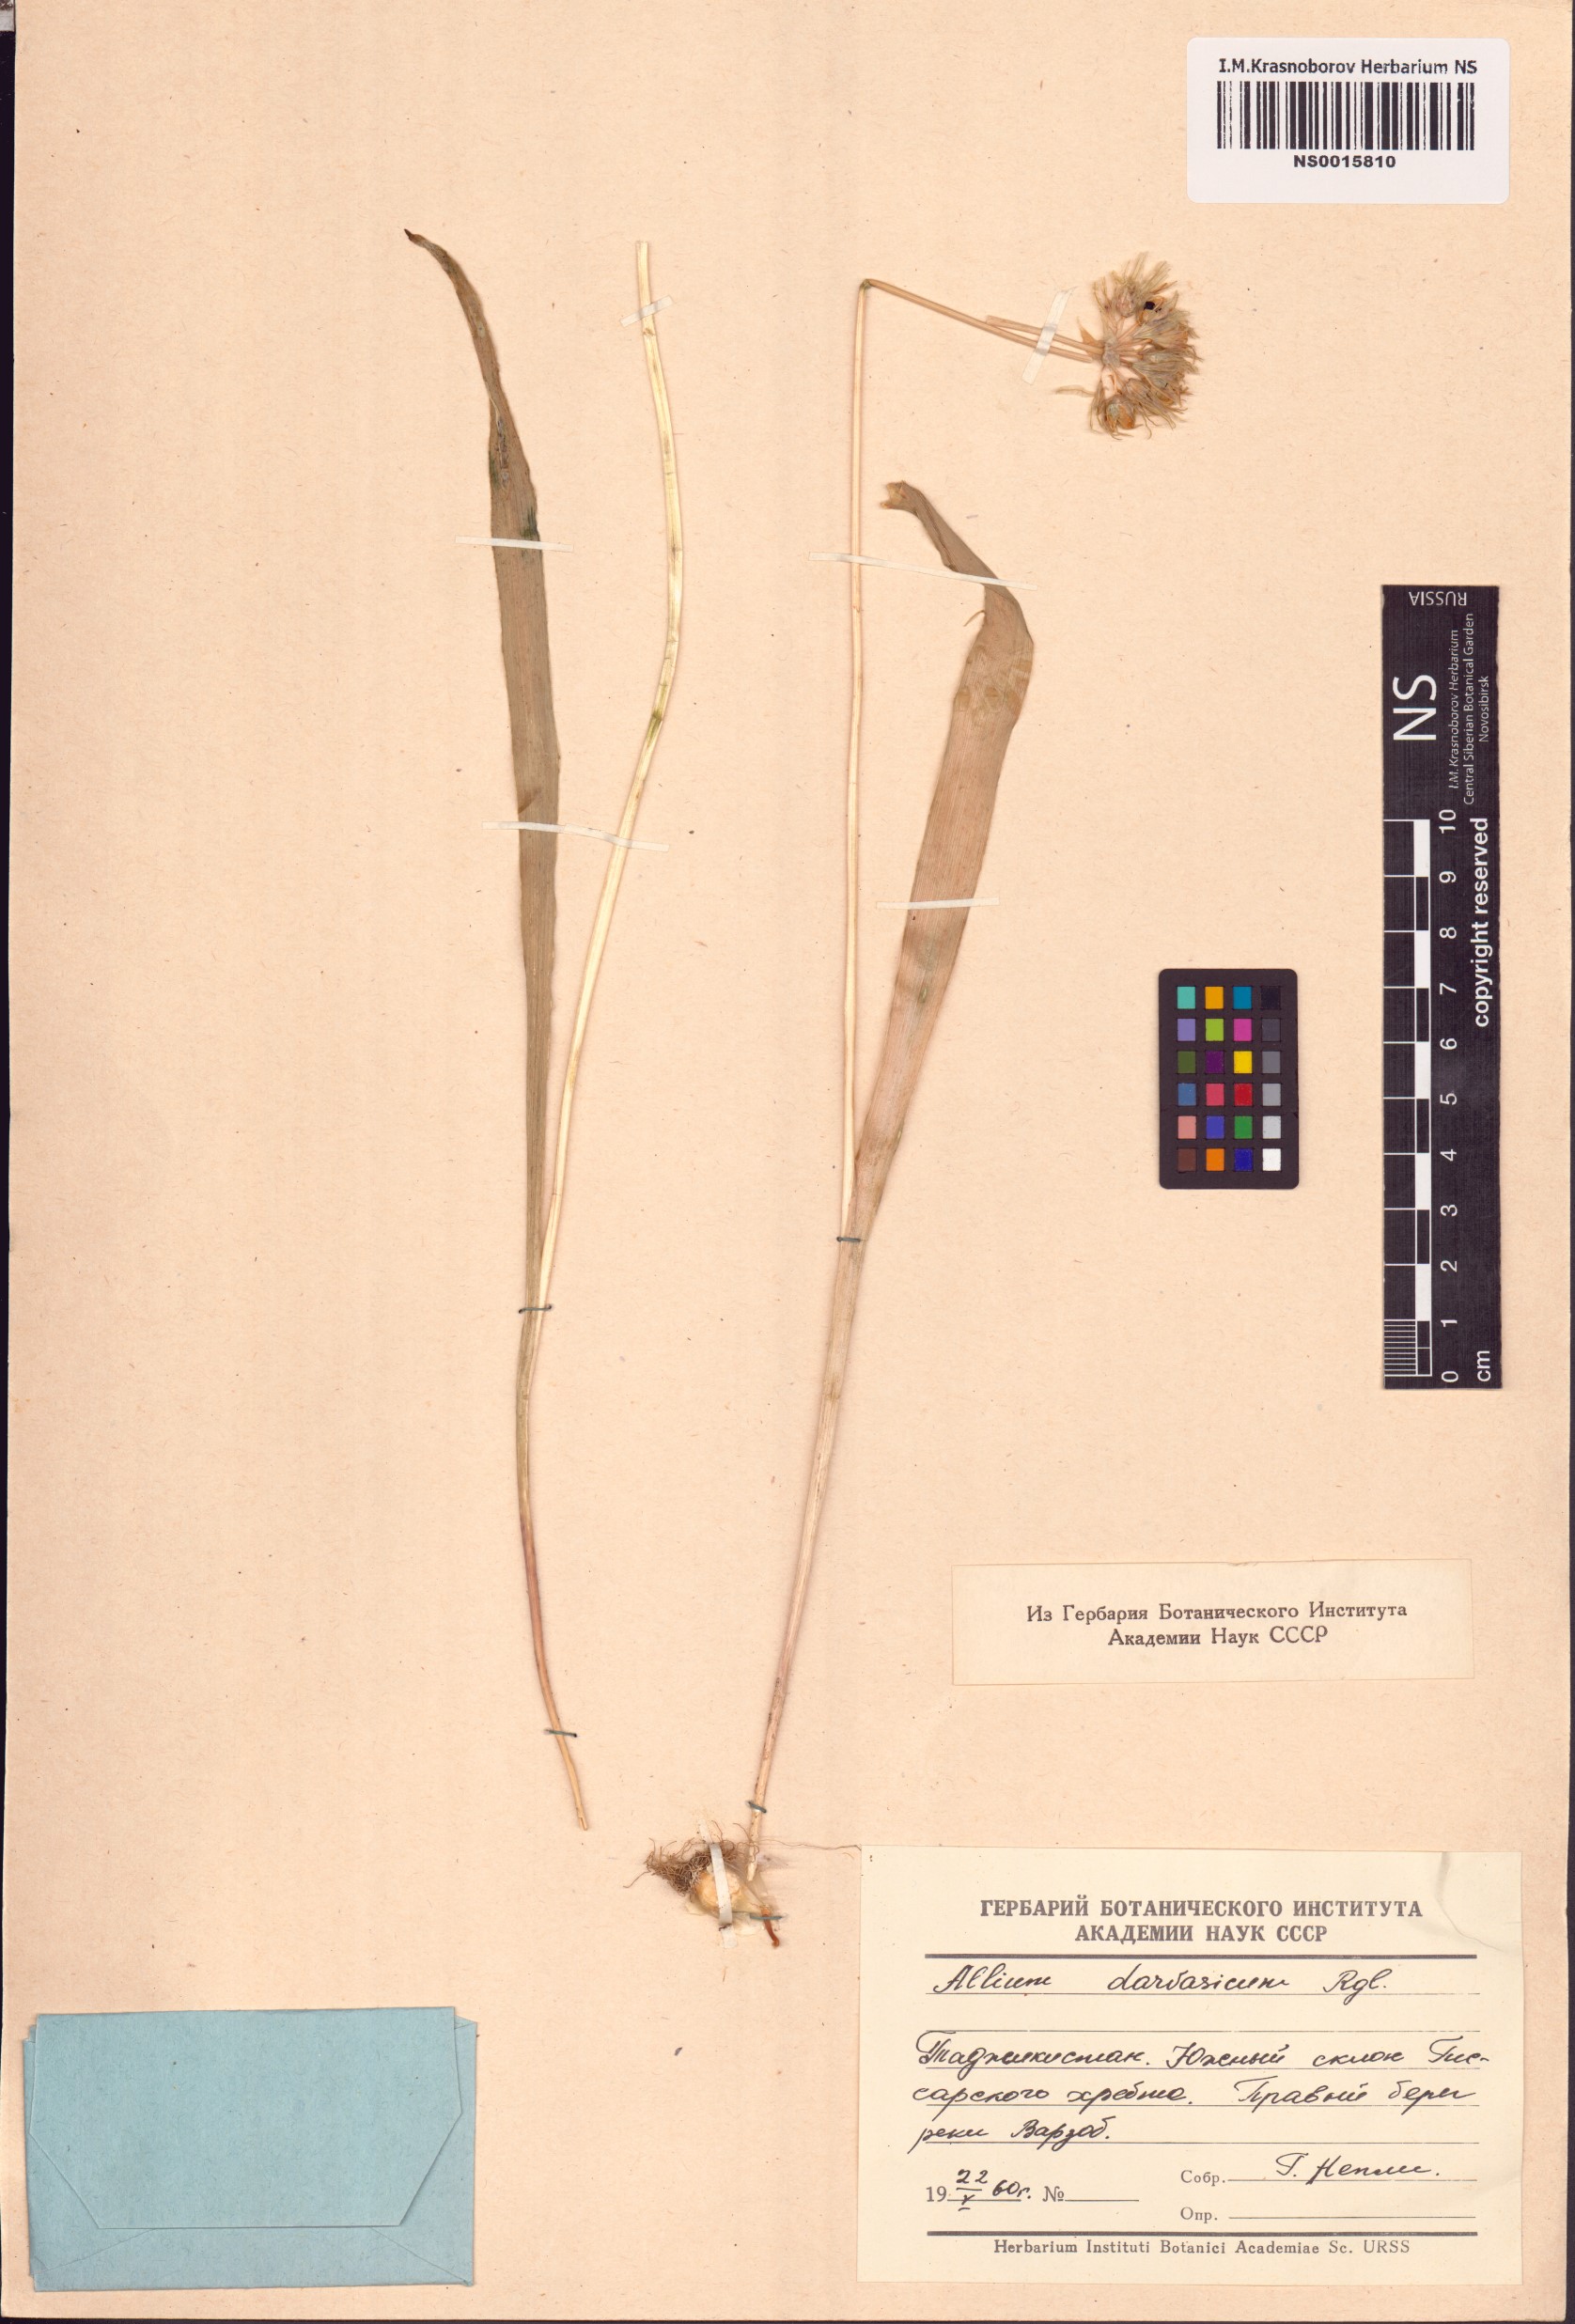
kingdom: Plantae
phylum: Tracheophyta
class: Liliopsida
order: Asparagales
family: Amaryllidaceae
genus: Allium
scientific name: Allium darwasicum
